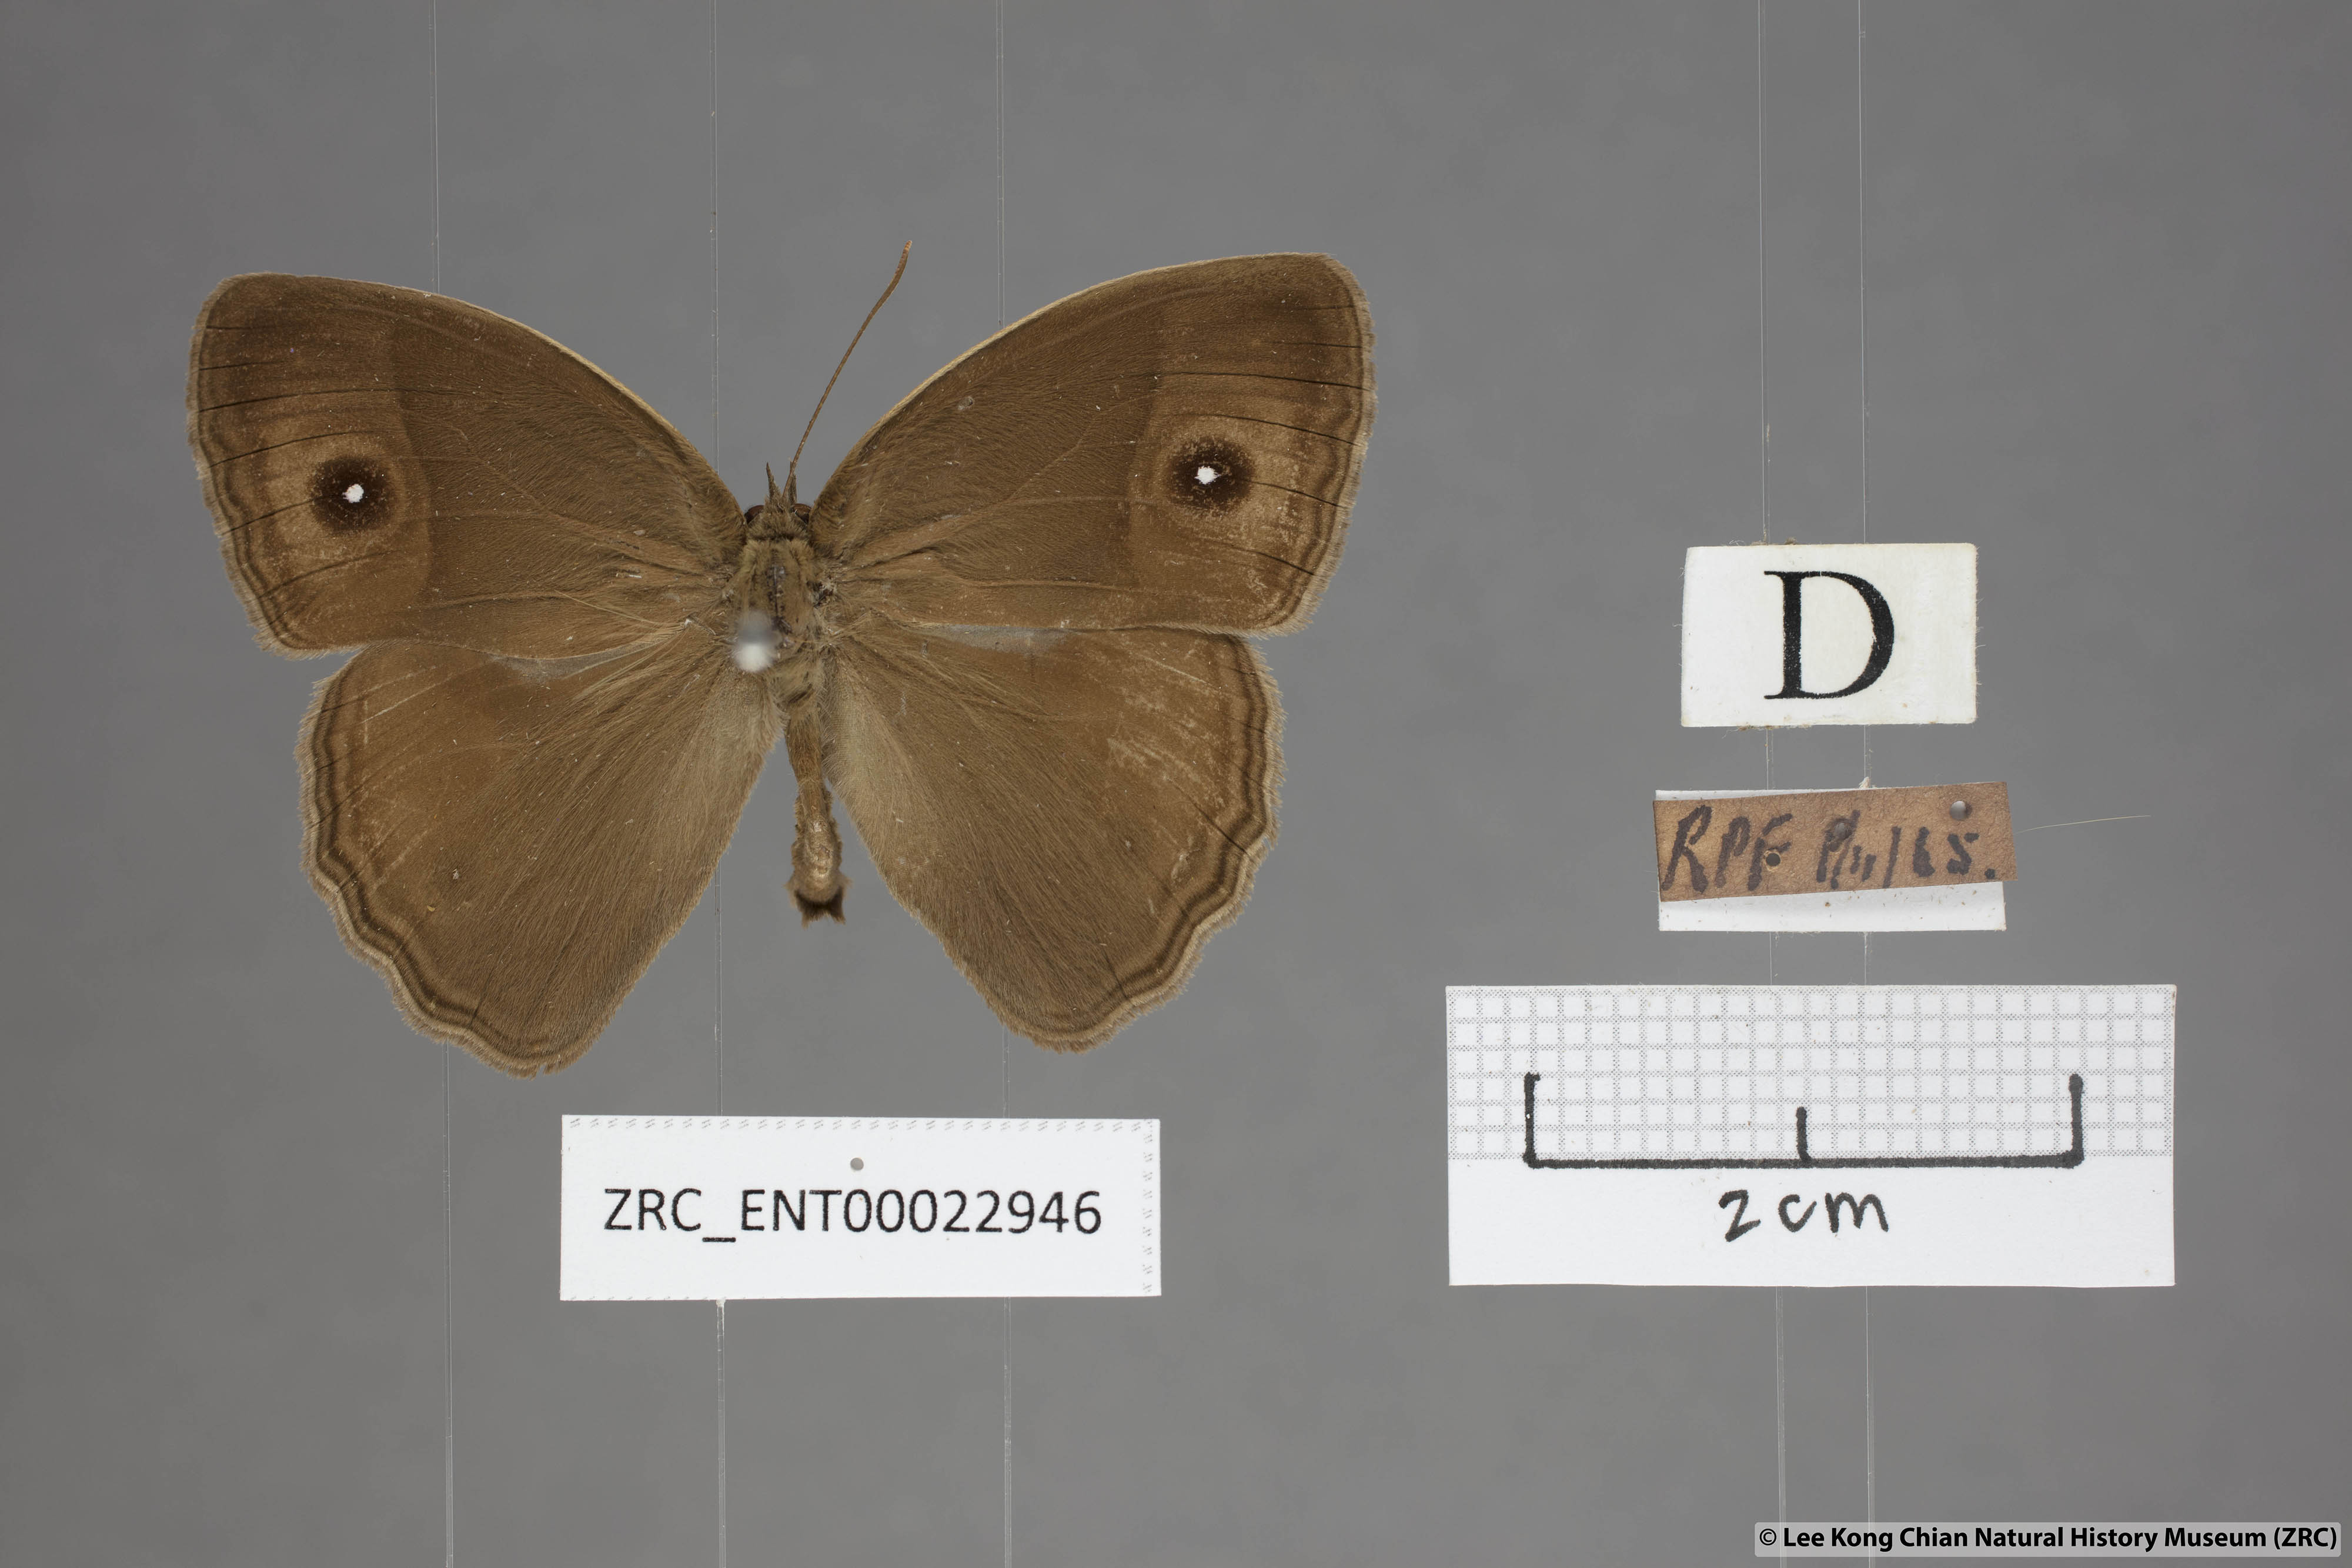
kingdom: Animalia
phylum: Arthropoda
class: Insecta
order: Lepidoptera
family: Nymphalidae
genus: Mycalesis
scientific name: Mycalesis mineus
